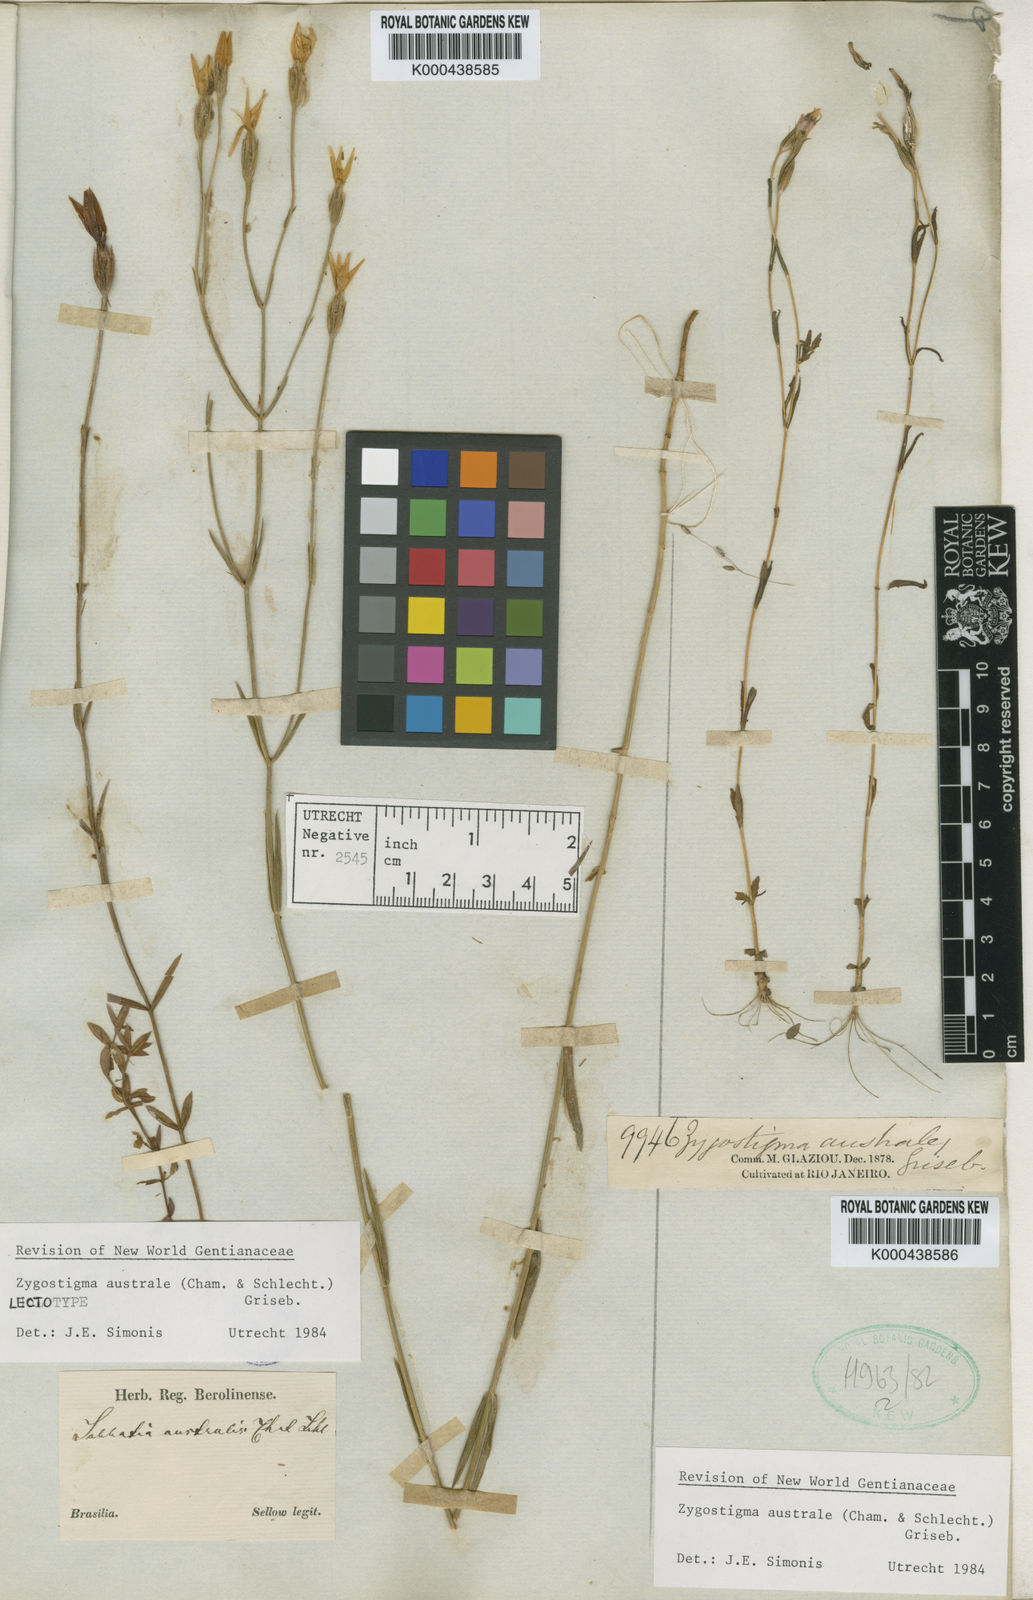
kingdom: Plantae
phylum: Tracheophyta
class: Magnoliopsida
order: Gentianales
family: Gentianaceae
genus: Zygostigma
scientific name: Zygostigma australe
